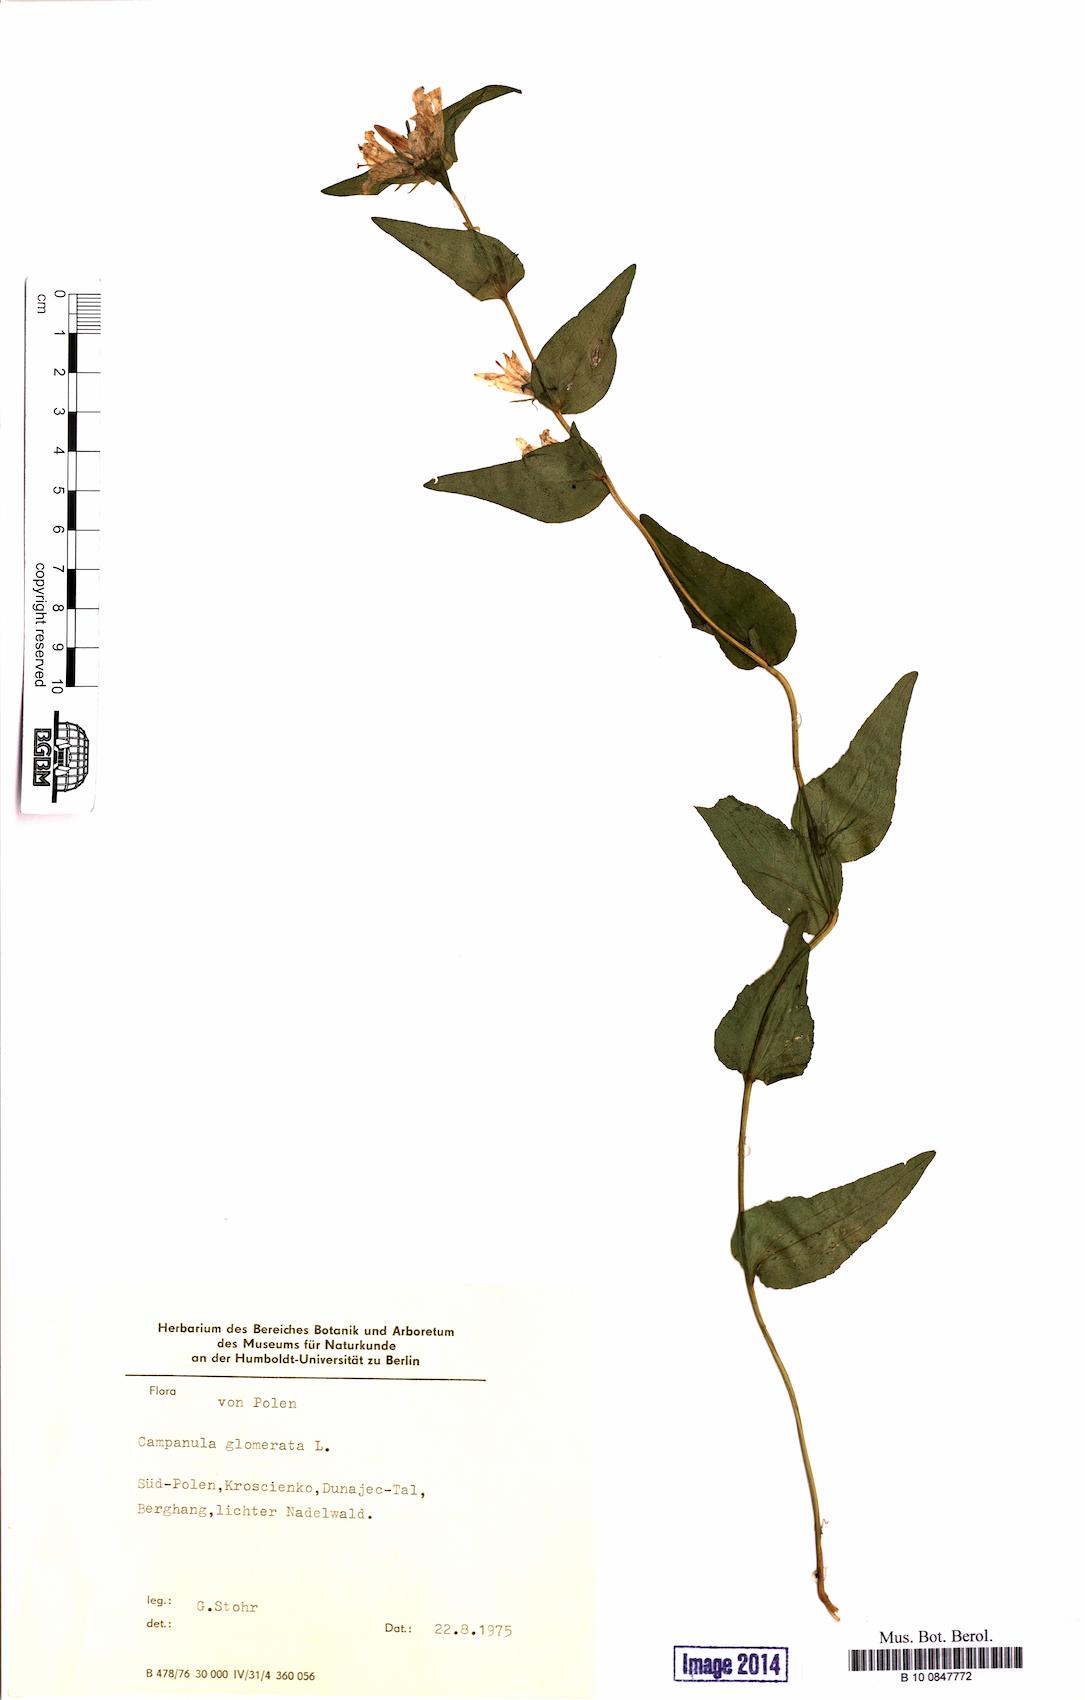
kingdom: Plantae
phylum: Tracheophyta
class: Magnoliopsida
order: Asterales
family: Campanulaceae
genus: Campanula
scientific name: Campanula glomerata
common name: Clustered bellflower
